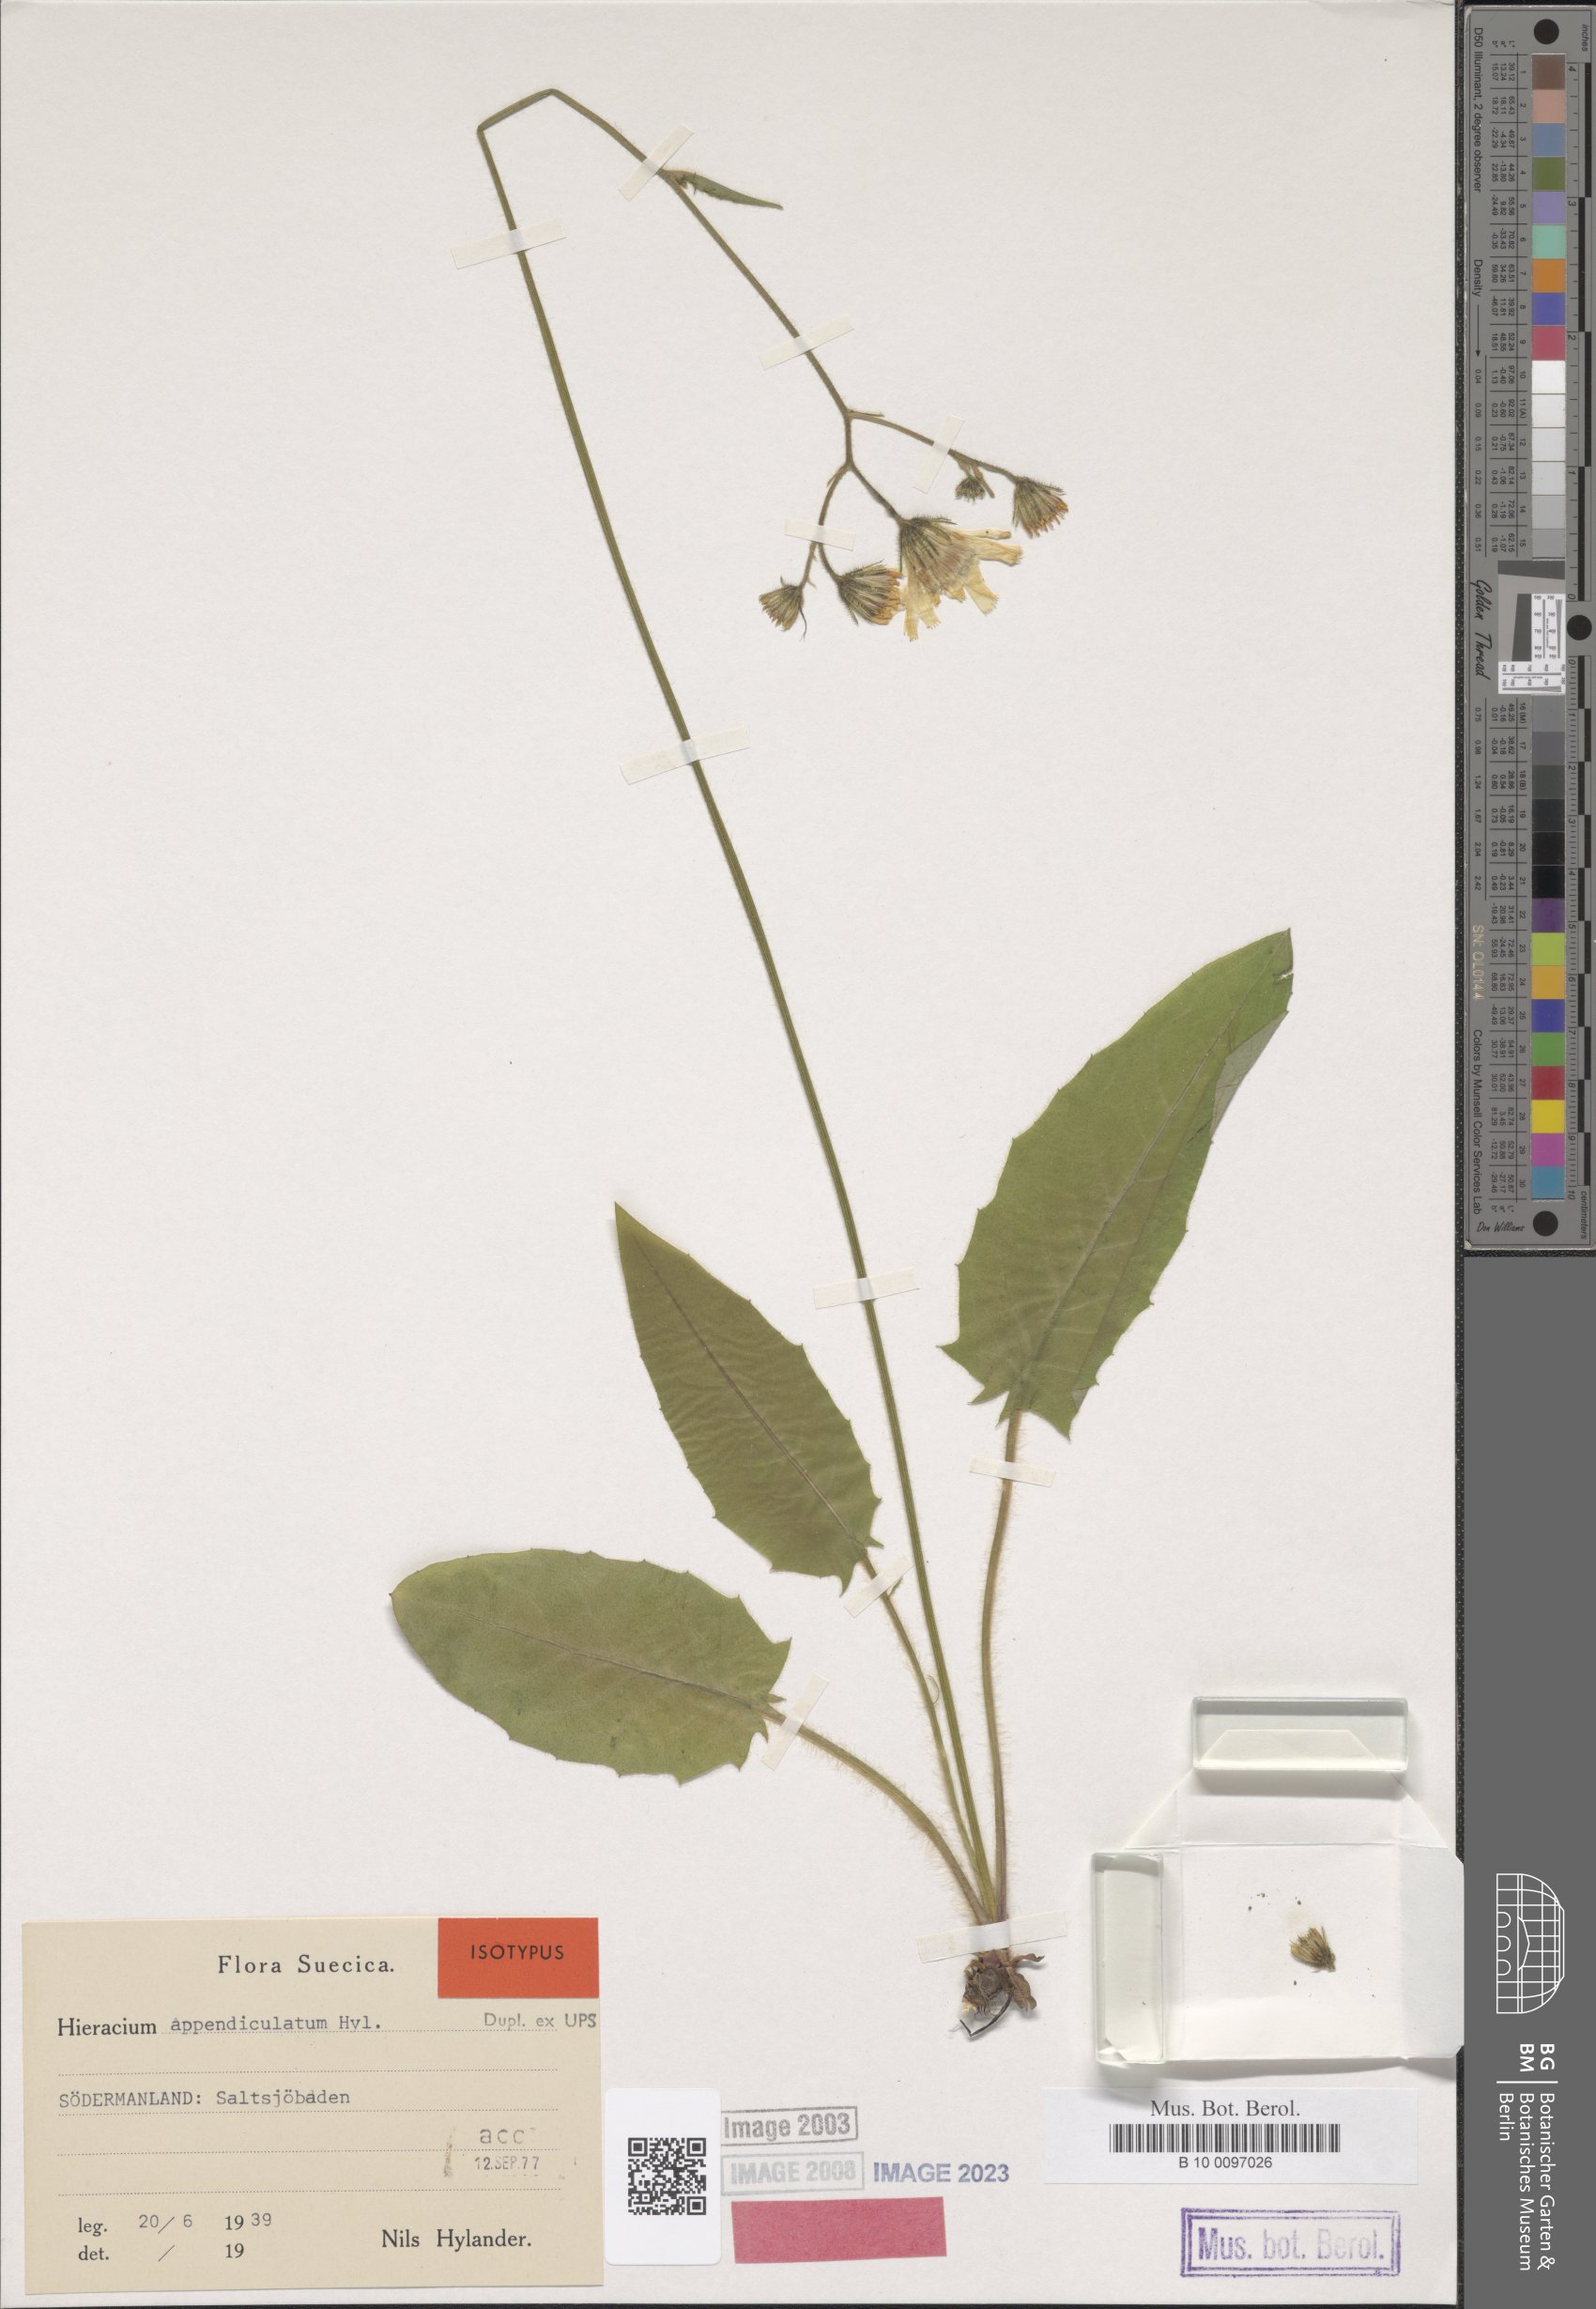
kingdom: Plantae
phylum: Tracheophyta
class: Magnoliopsida
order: Asterales
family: Asteraceae
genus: Hieracium
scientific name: Hieracium appendiculatum
